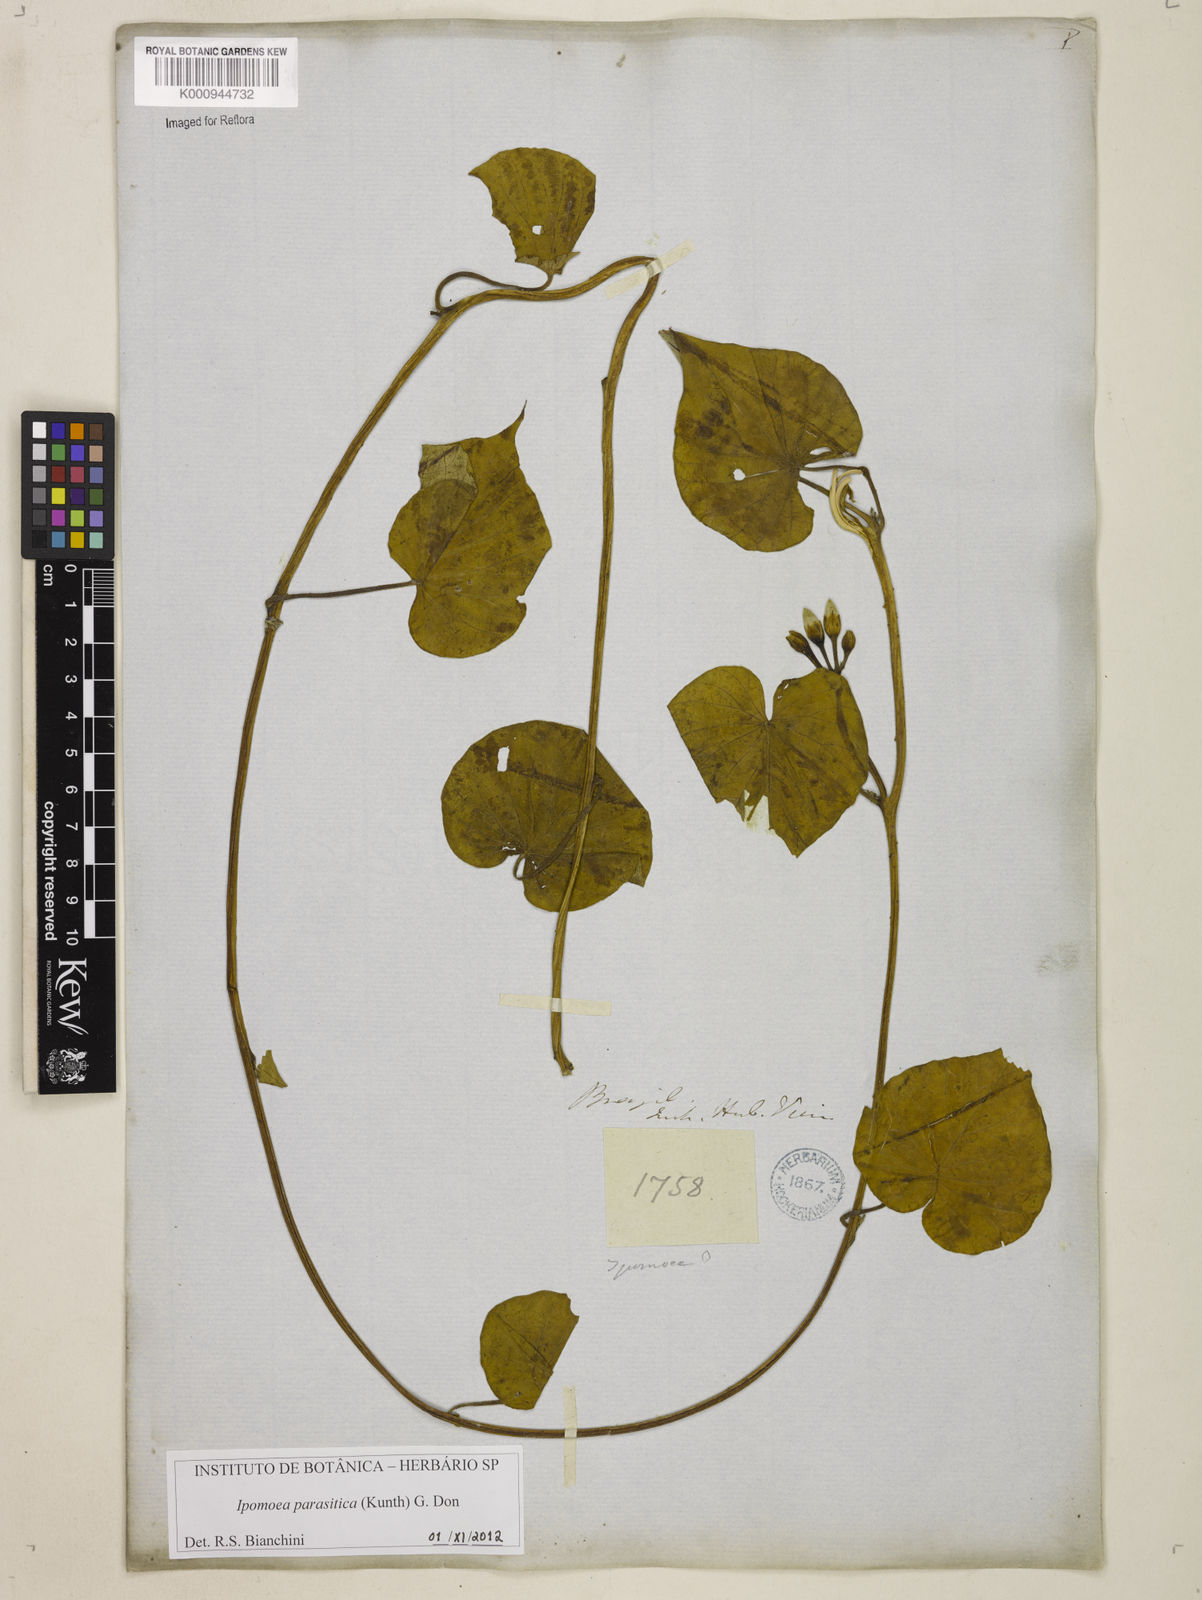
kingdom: Plantae
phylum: Tracheophyta
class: Magnoliopsida
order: Solanales
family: Convolvulaceae
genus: Ipomoea
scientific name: Ipomoea parasitica
